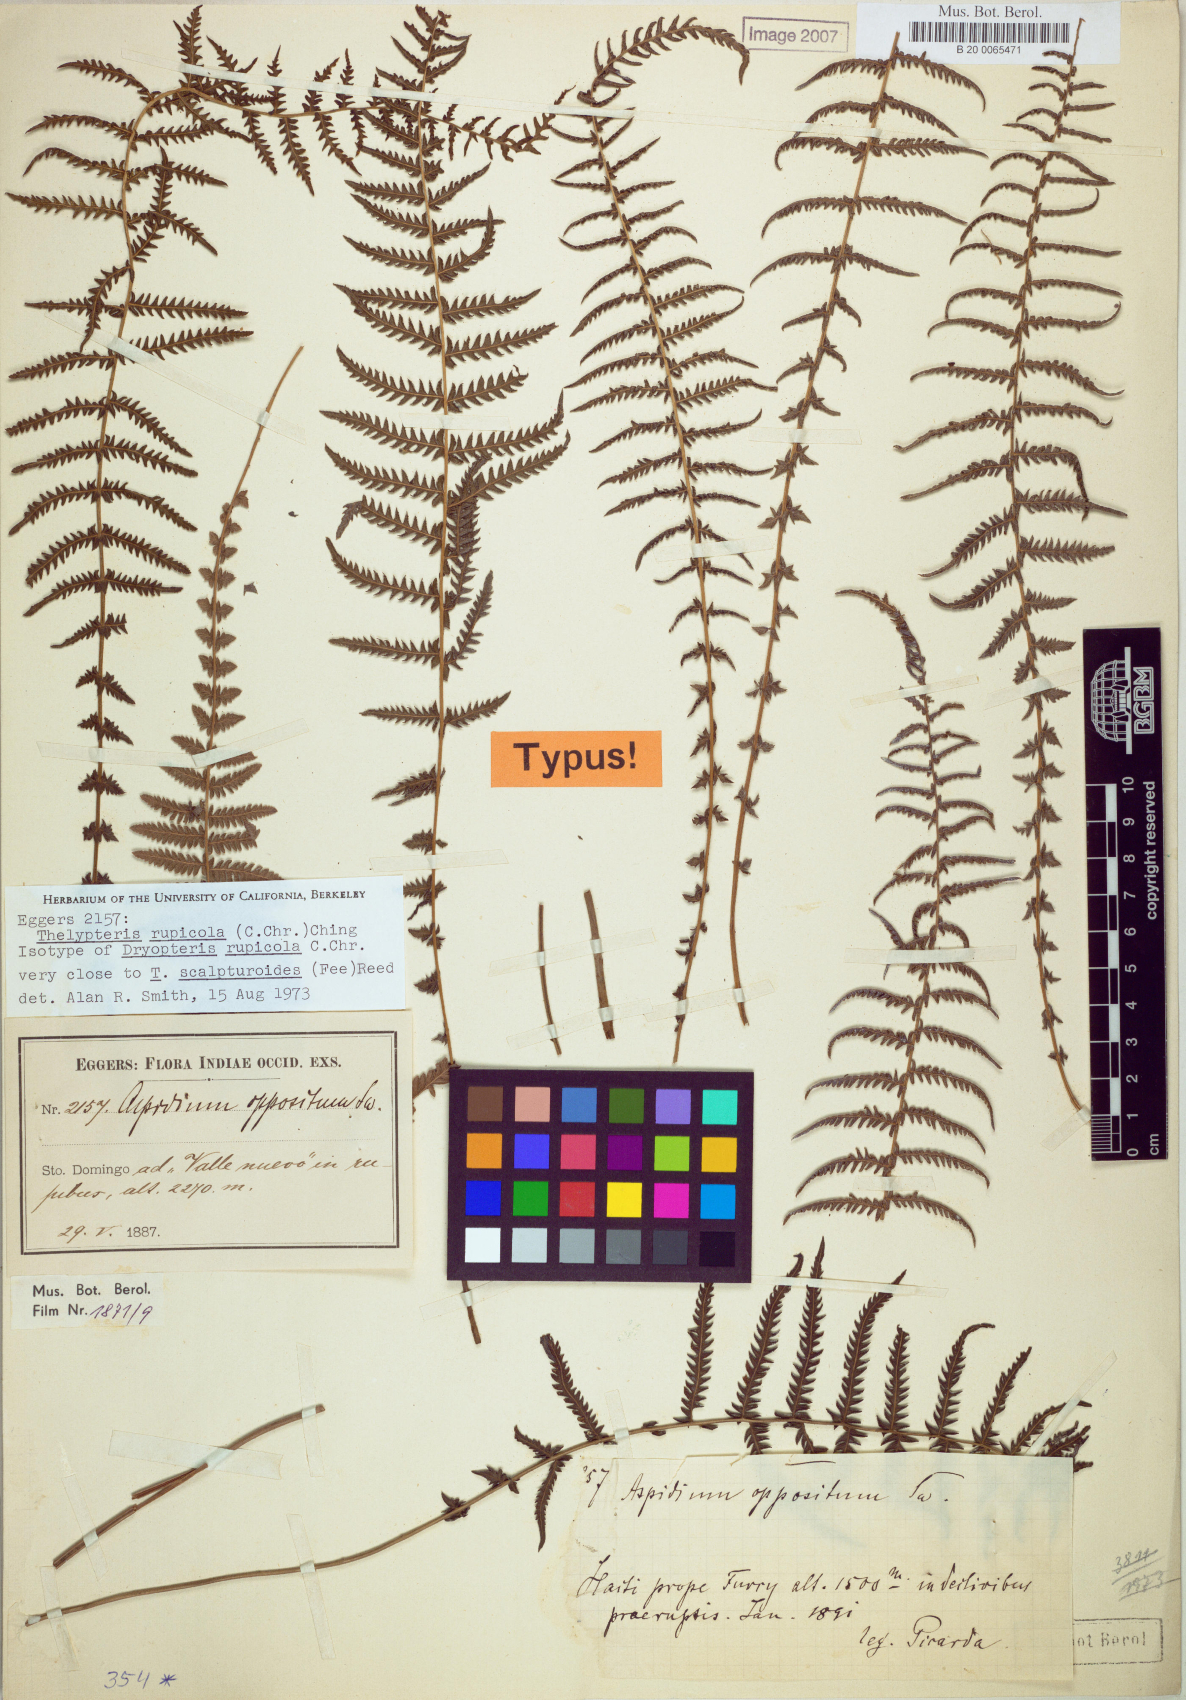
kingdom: Plantae
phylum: Tracheophyta
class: Polypodiopsida
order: Polypodiales
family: Thelypteridaceae
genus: Amauropelta
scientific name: Amauropelta rupicola
